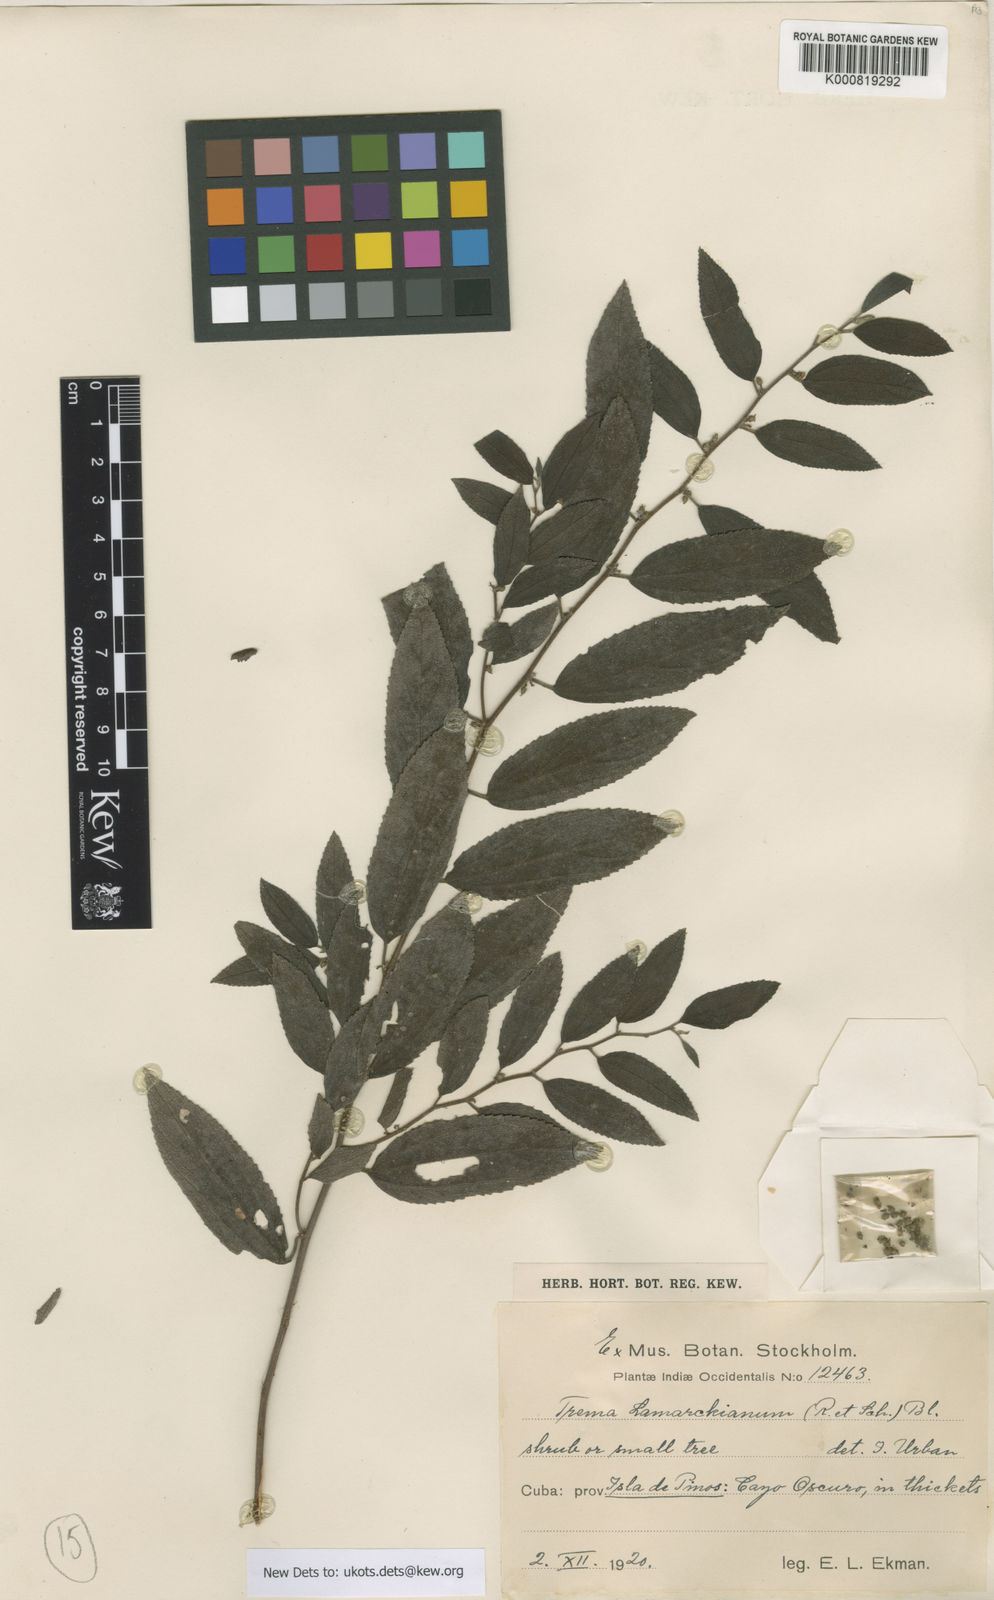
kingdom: Plantae
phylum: Tracheophyta
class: Magnoliopsida
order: Rosales
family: Cannabaceae
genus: Trema
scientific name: Trema lamarckianum
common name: Lamarck's trema
